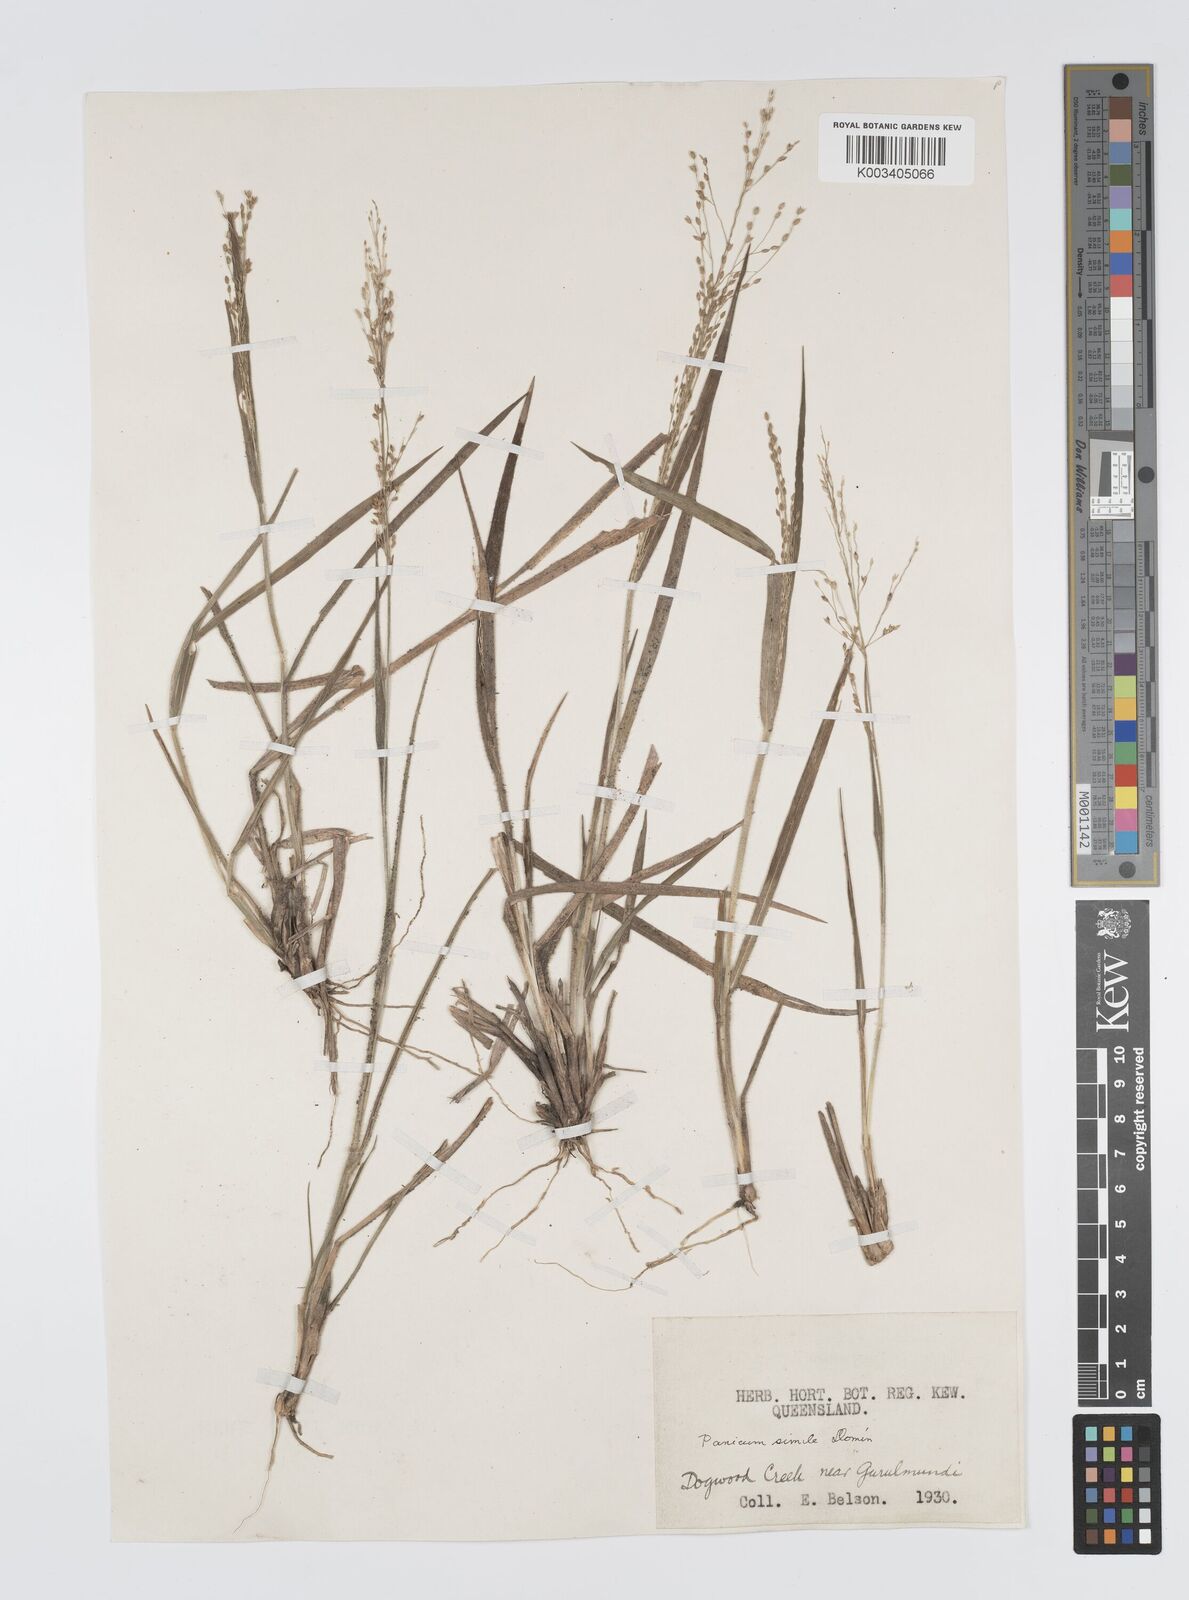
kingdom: Plantae
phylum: Tracheophyta
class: Liliopsida
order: Poales
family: Poaceae
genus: Panicum
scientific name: Panicum simile
